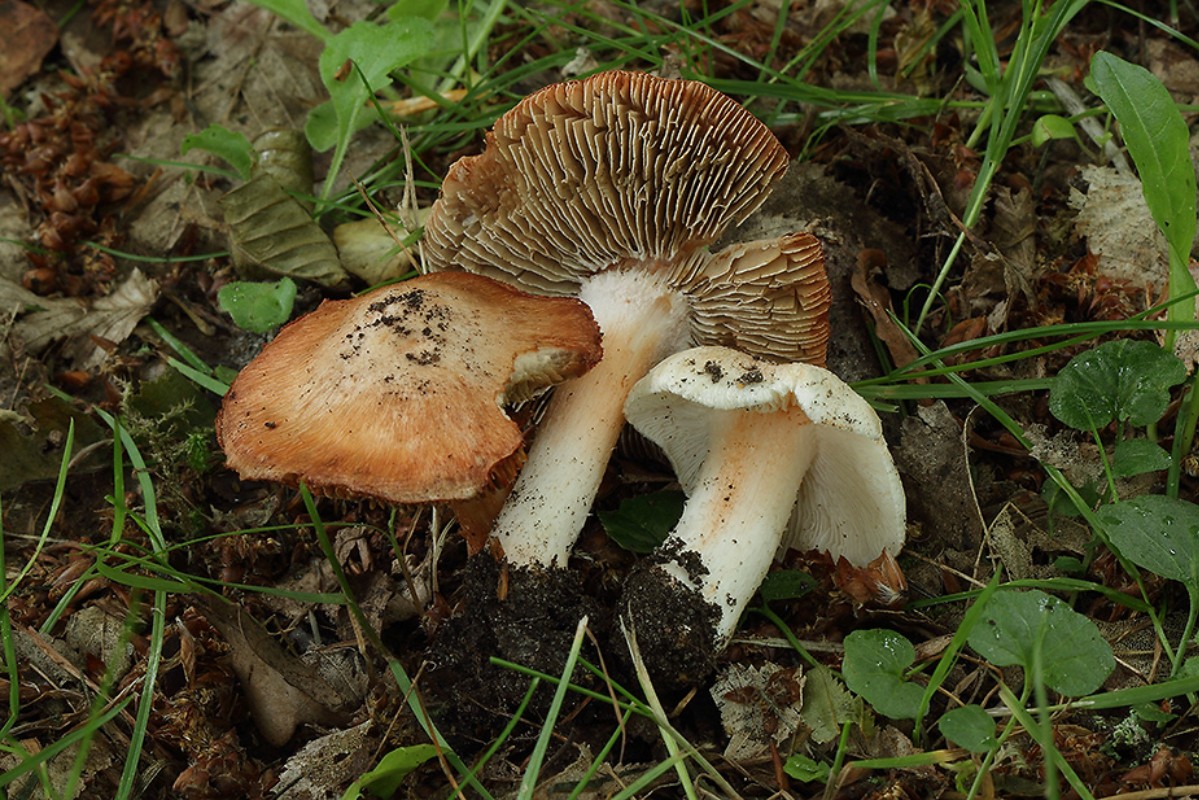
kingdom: Fungi
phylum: Basidiomycota
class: Agaricomycetes
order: Agaricales
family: Inocybaceae
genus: Inosperma
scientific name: Inosperma erubescens
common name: giftig trævlhat
